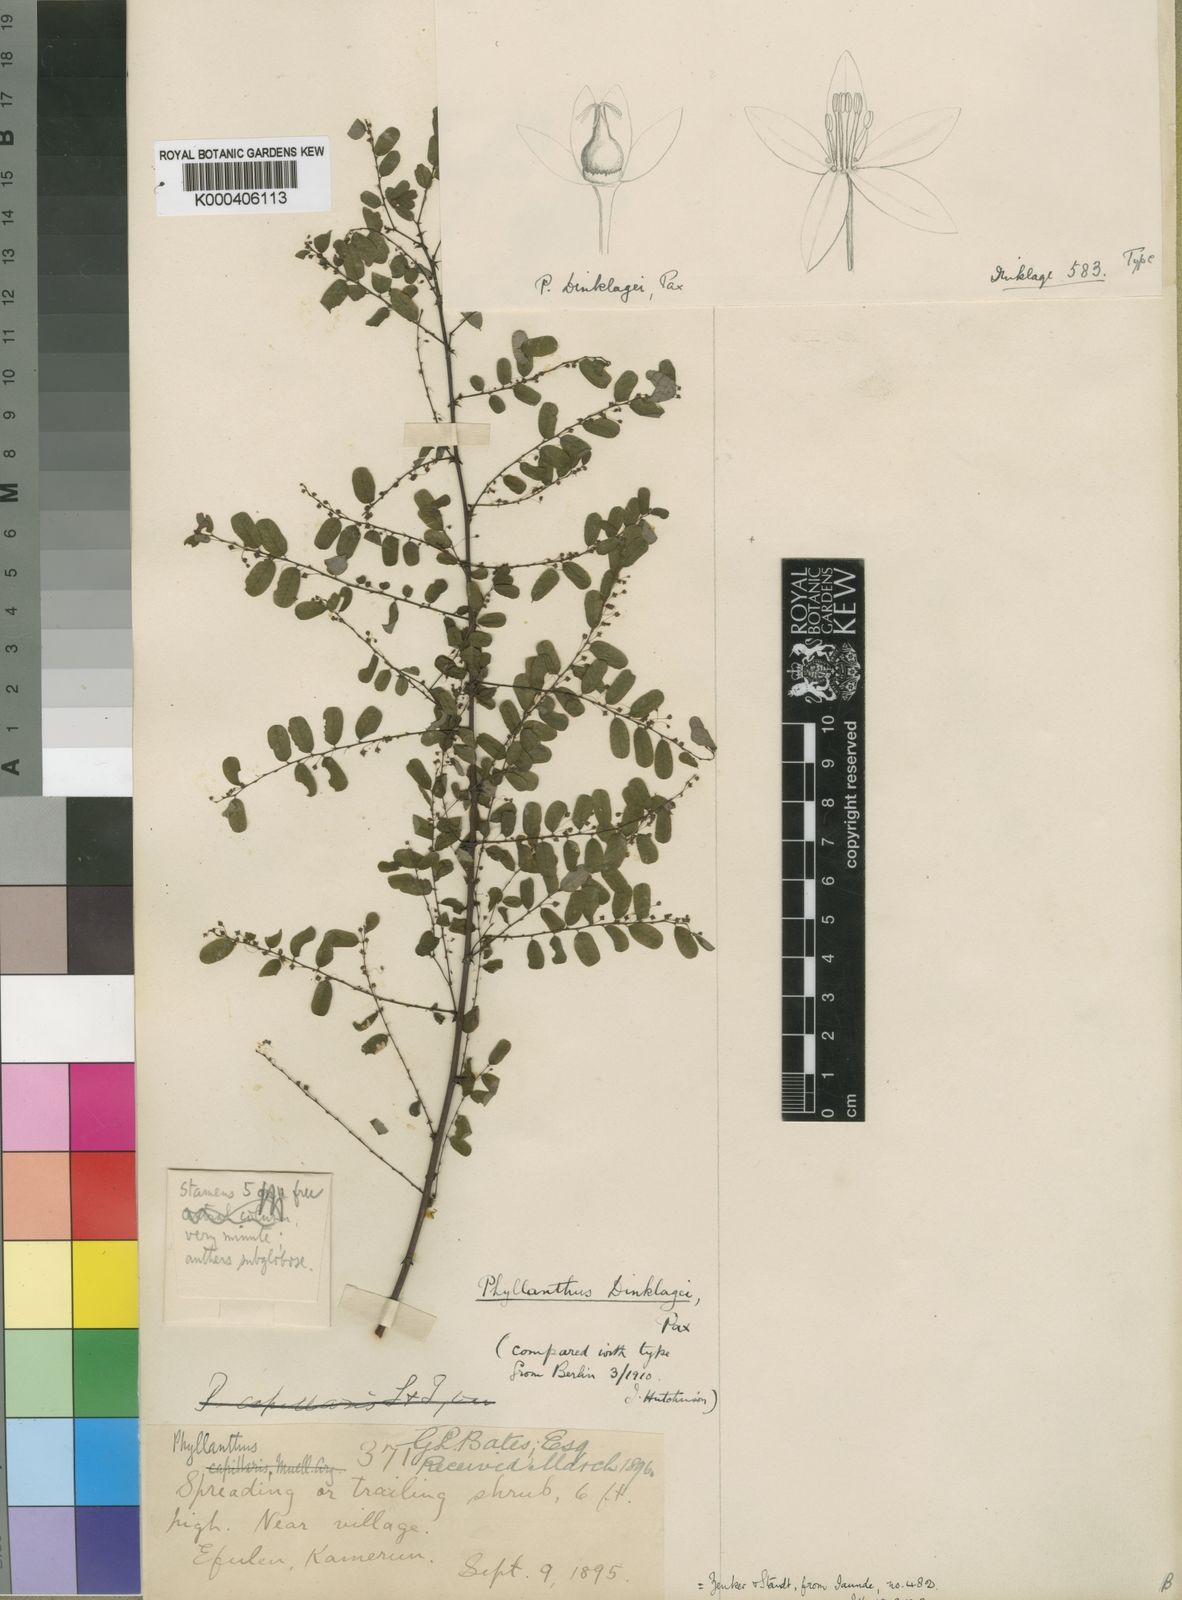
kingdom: Plantae
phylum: Tracheophyta
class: Magnoliopsida
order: Malpighiales
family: Phyllanthaceae
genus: Phyllanthus
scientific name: Phyllanthus dinklagei
